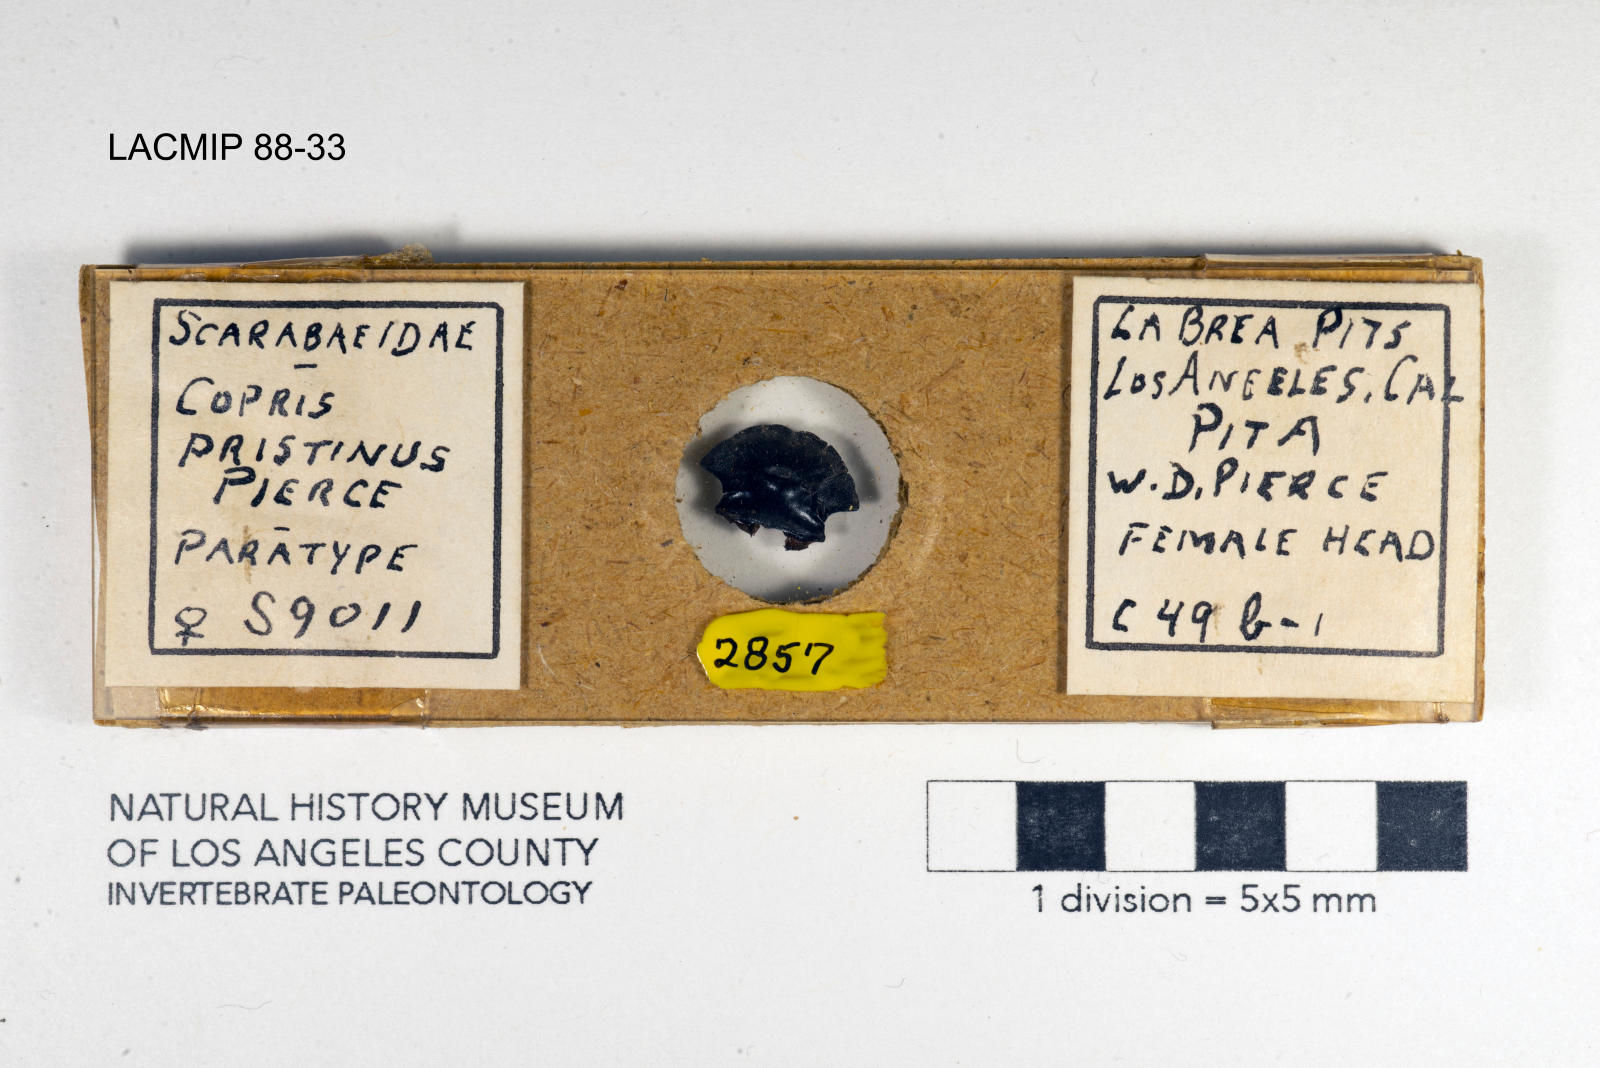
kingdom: Animalia
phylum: Arthropoda
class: Insecta
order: Coleoptera
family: Scarabaeidae
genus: Copris
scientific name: Copris pristinus
